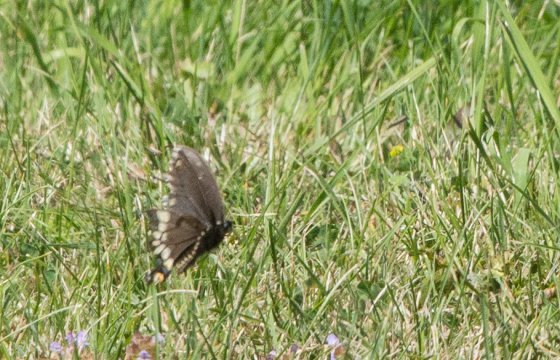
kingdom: Animalia
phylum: Arthropoda
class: Insecta
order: Lepidoptera
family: Papilionidae
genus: Papilio
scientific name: Papilio polyxenes
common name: Black Swallowtail
